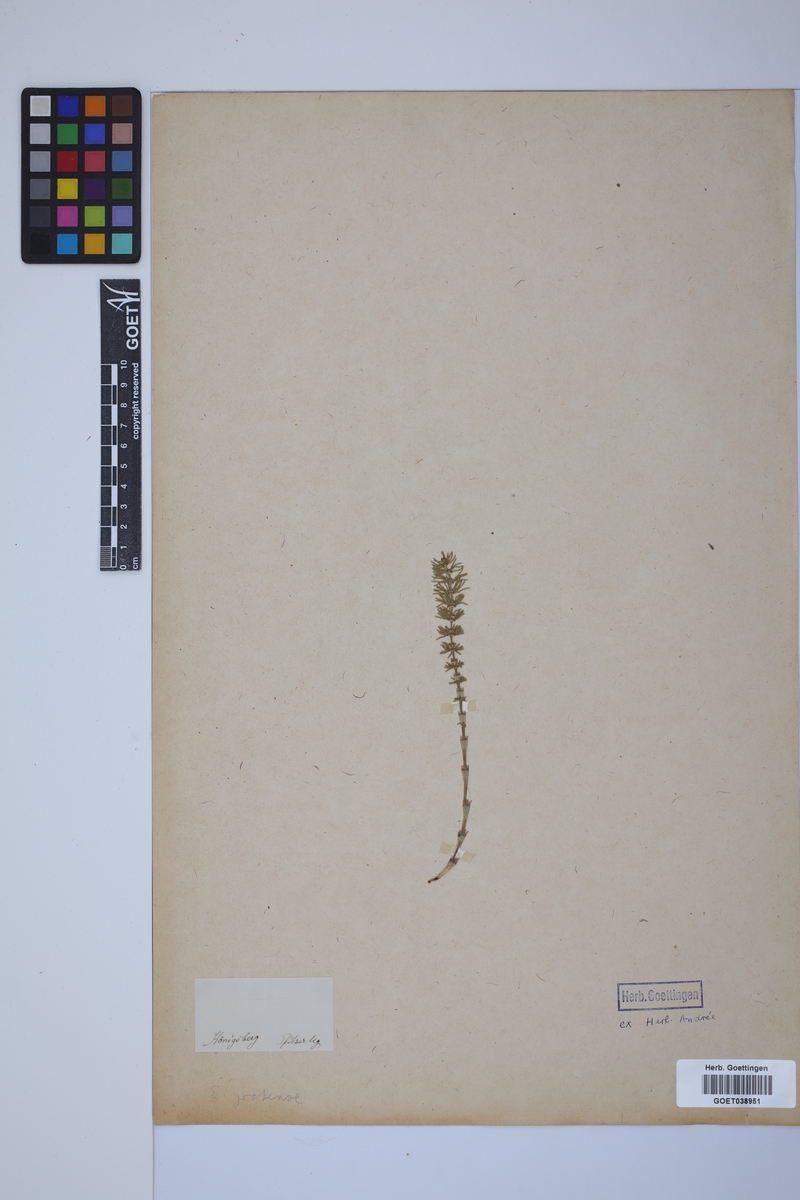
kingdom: Plantae
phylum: Tracheophyta
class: Polypodiopsida
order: Equisetales
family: Equisetaceae
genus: Equisetum
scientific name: Equisetum pratense
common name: Meadow horsetail
